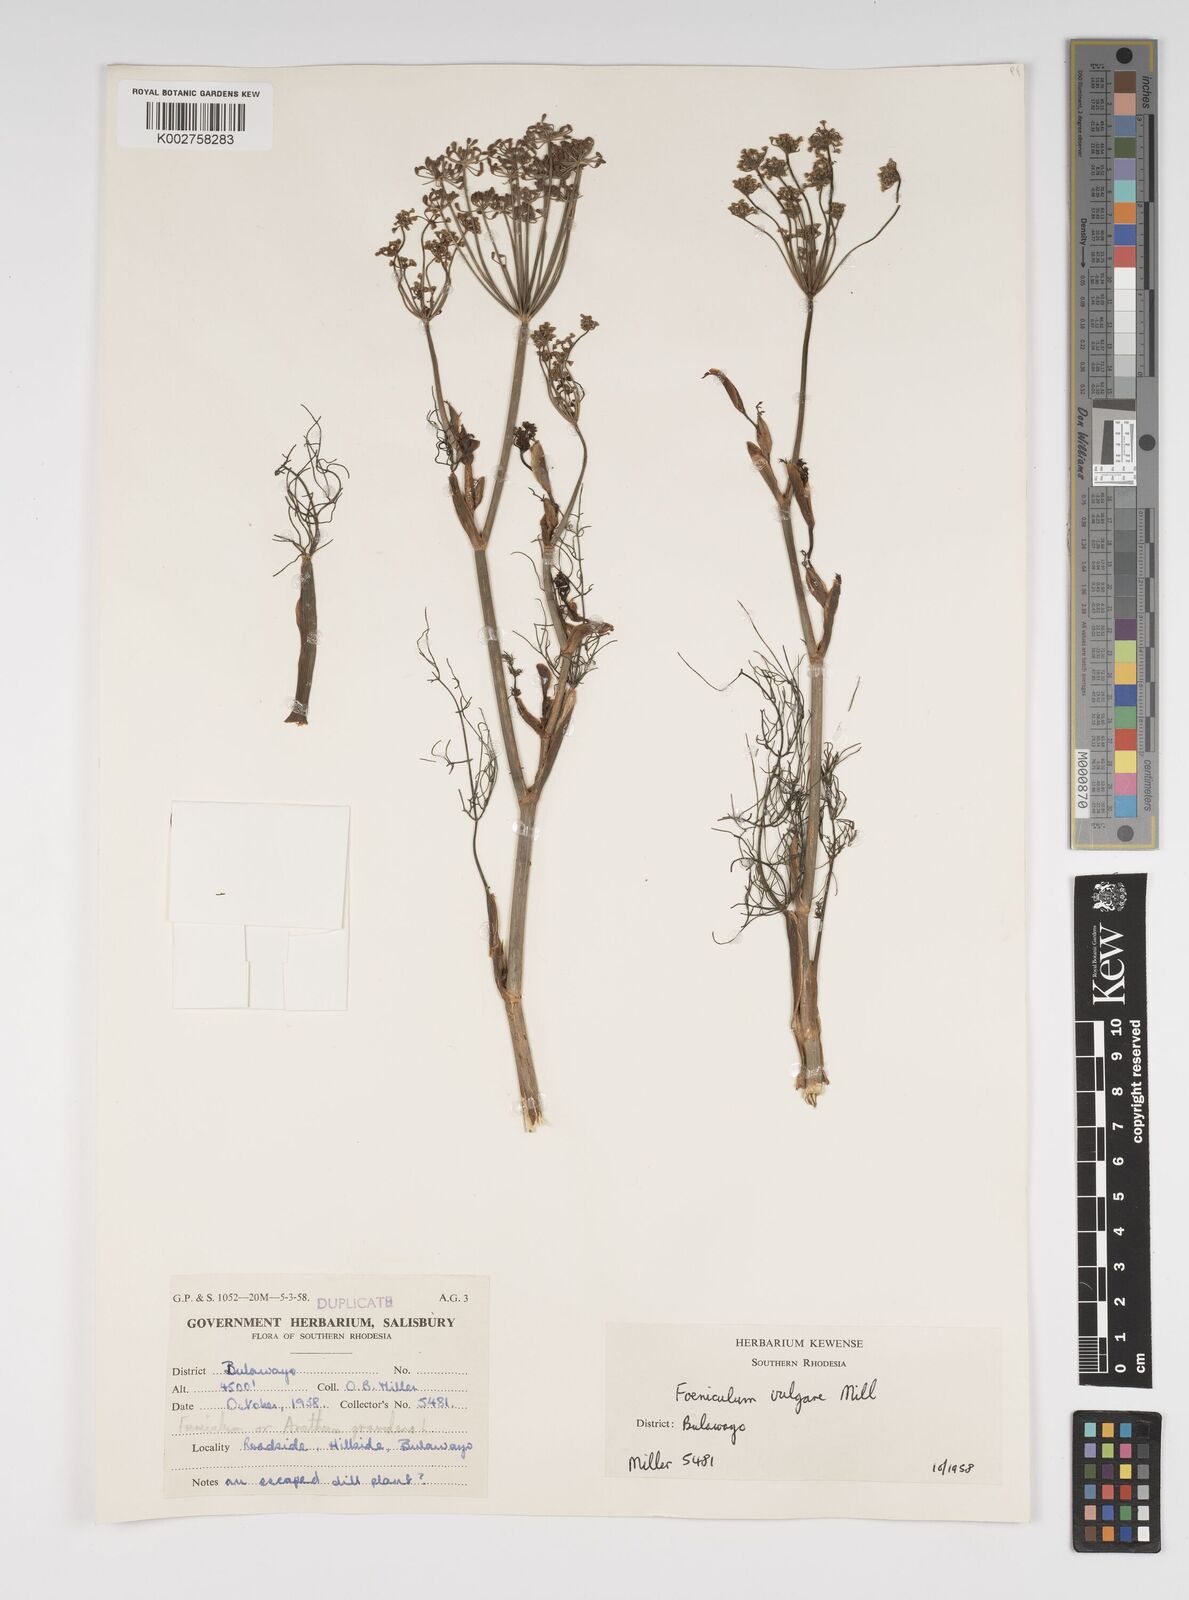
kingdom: Plantae
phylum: Tracheophyta
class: Magnoliopsida
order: Apiales
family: Apiaceae
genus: Foeniculum
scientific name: Foeniculum vulgare
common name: Fennel
